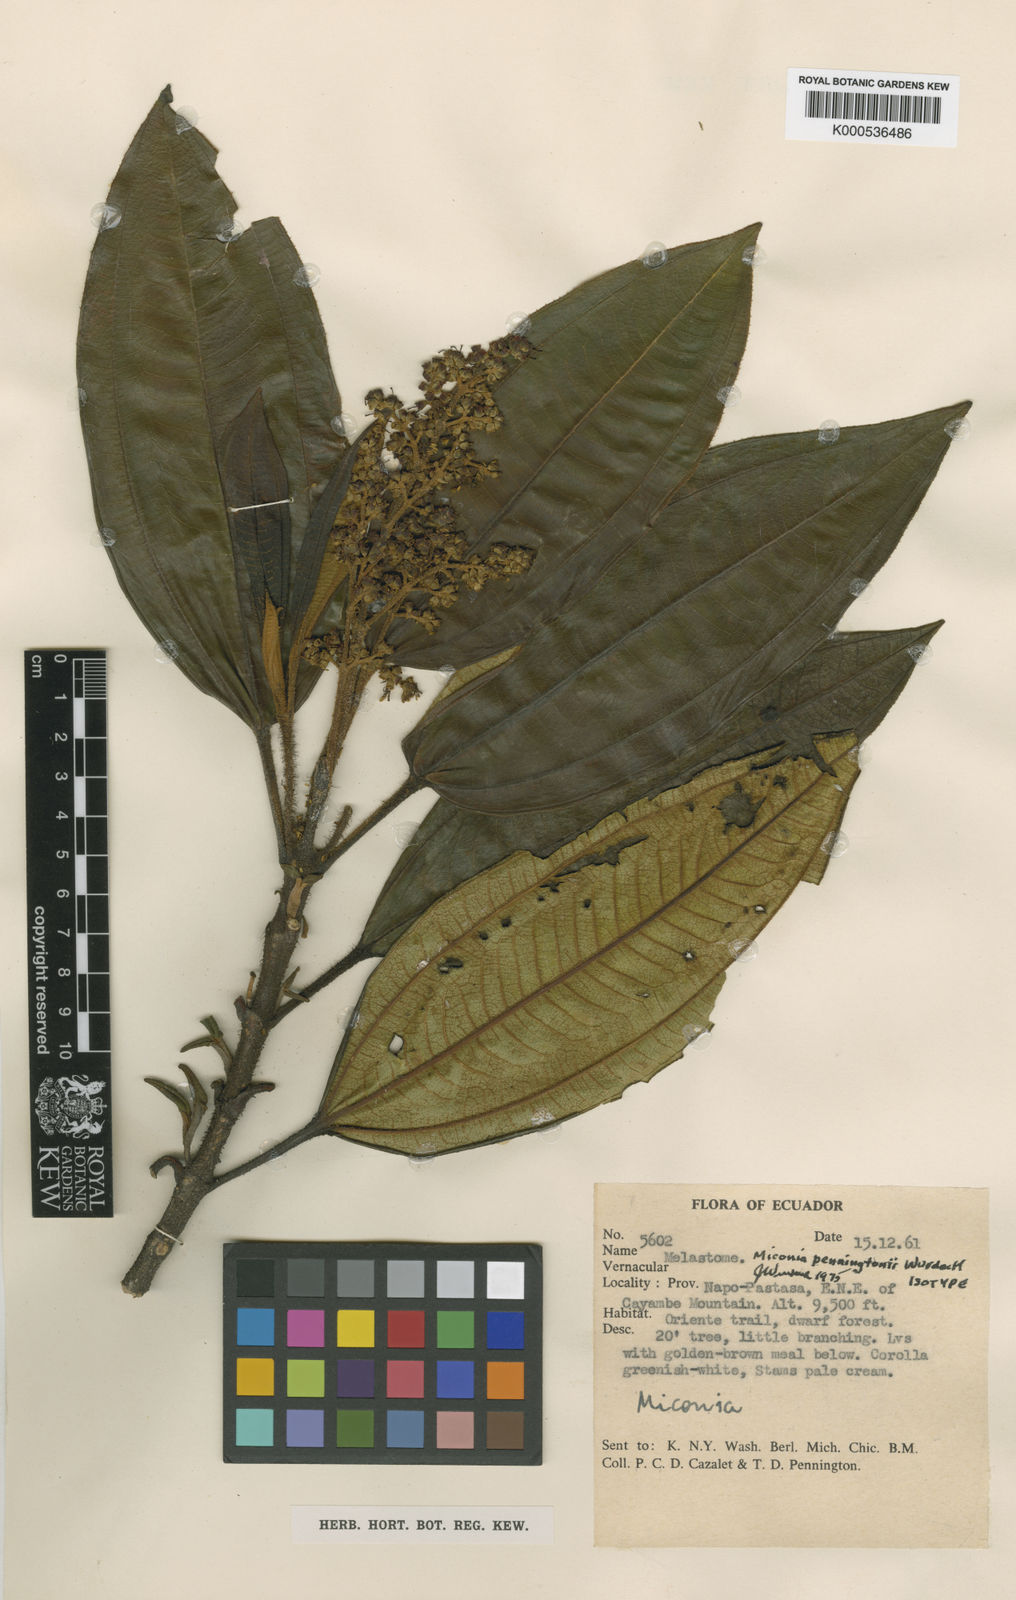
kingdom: Plantae
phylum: Tracheophyta
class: Magnoliopsida
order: Myrtales
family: Melastomataceae
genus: Miconia
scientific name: Miconia penningtonii
